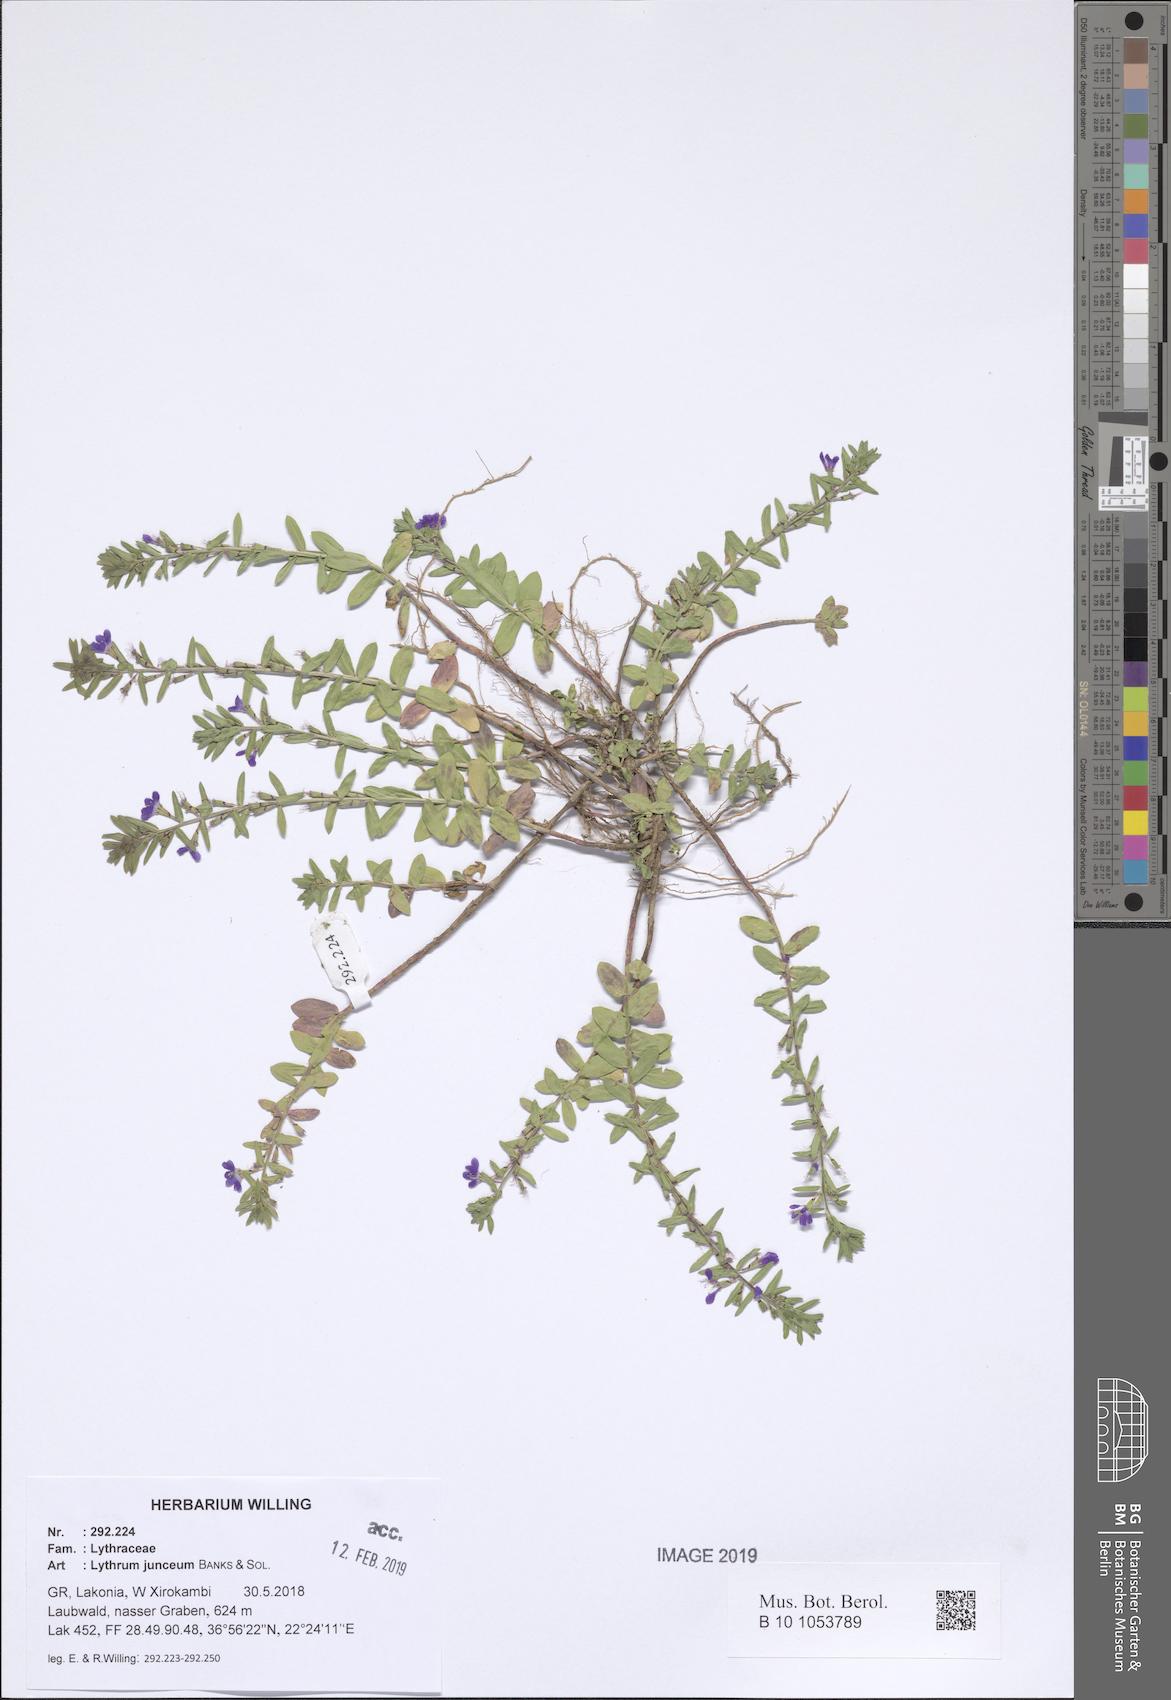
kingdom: Plantae
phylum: Tracheophyta
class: Magnoliopsida
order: Myrtales
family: Lythraceae
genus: Lythrum
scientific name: Lythrum junceum
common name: False grass-poly
